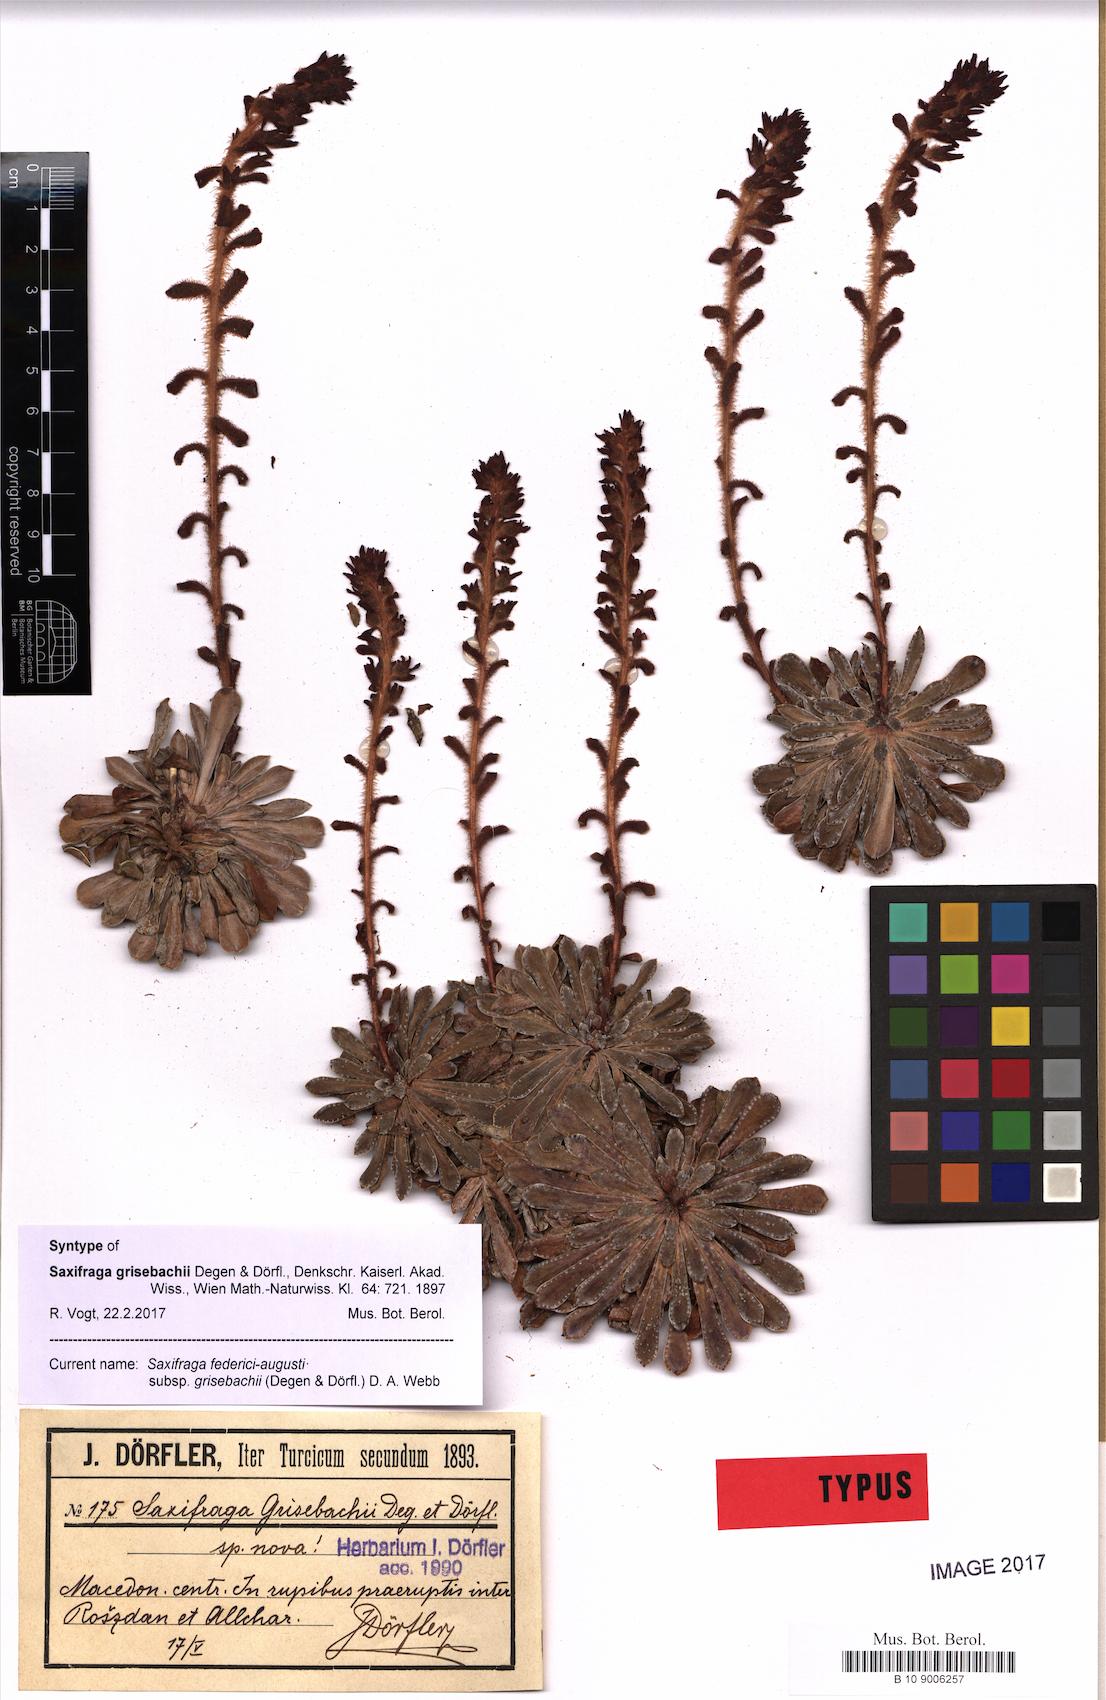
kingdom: Plantae
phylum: Tracheophyta
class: Magnoliopsida
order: Saxifragales
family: Saxifragaceae
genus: Saxifraga
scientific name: Saxifraga federici-augusti
